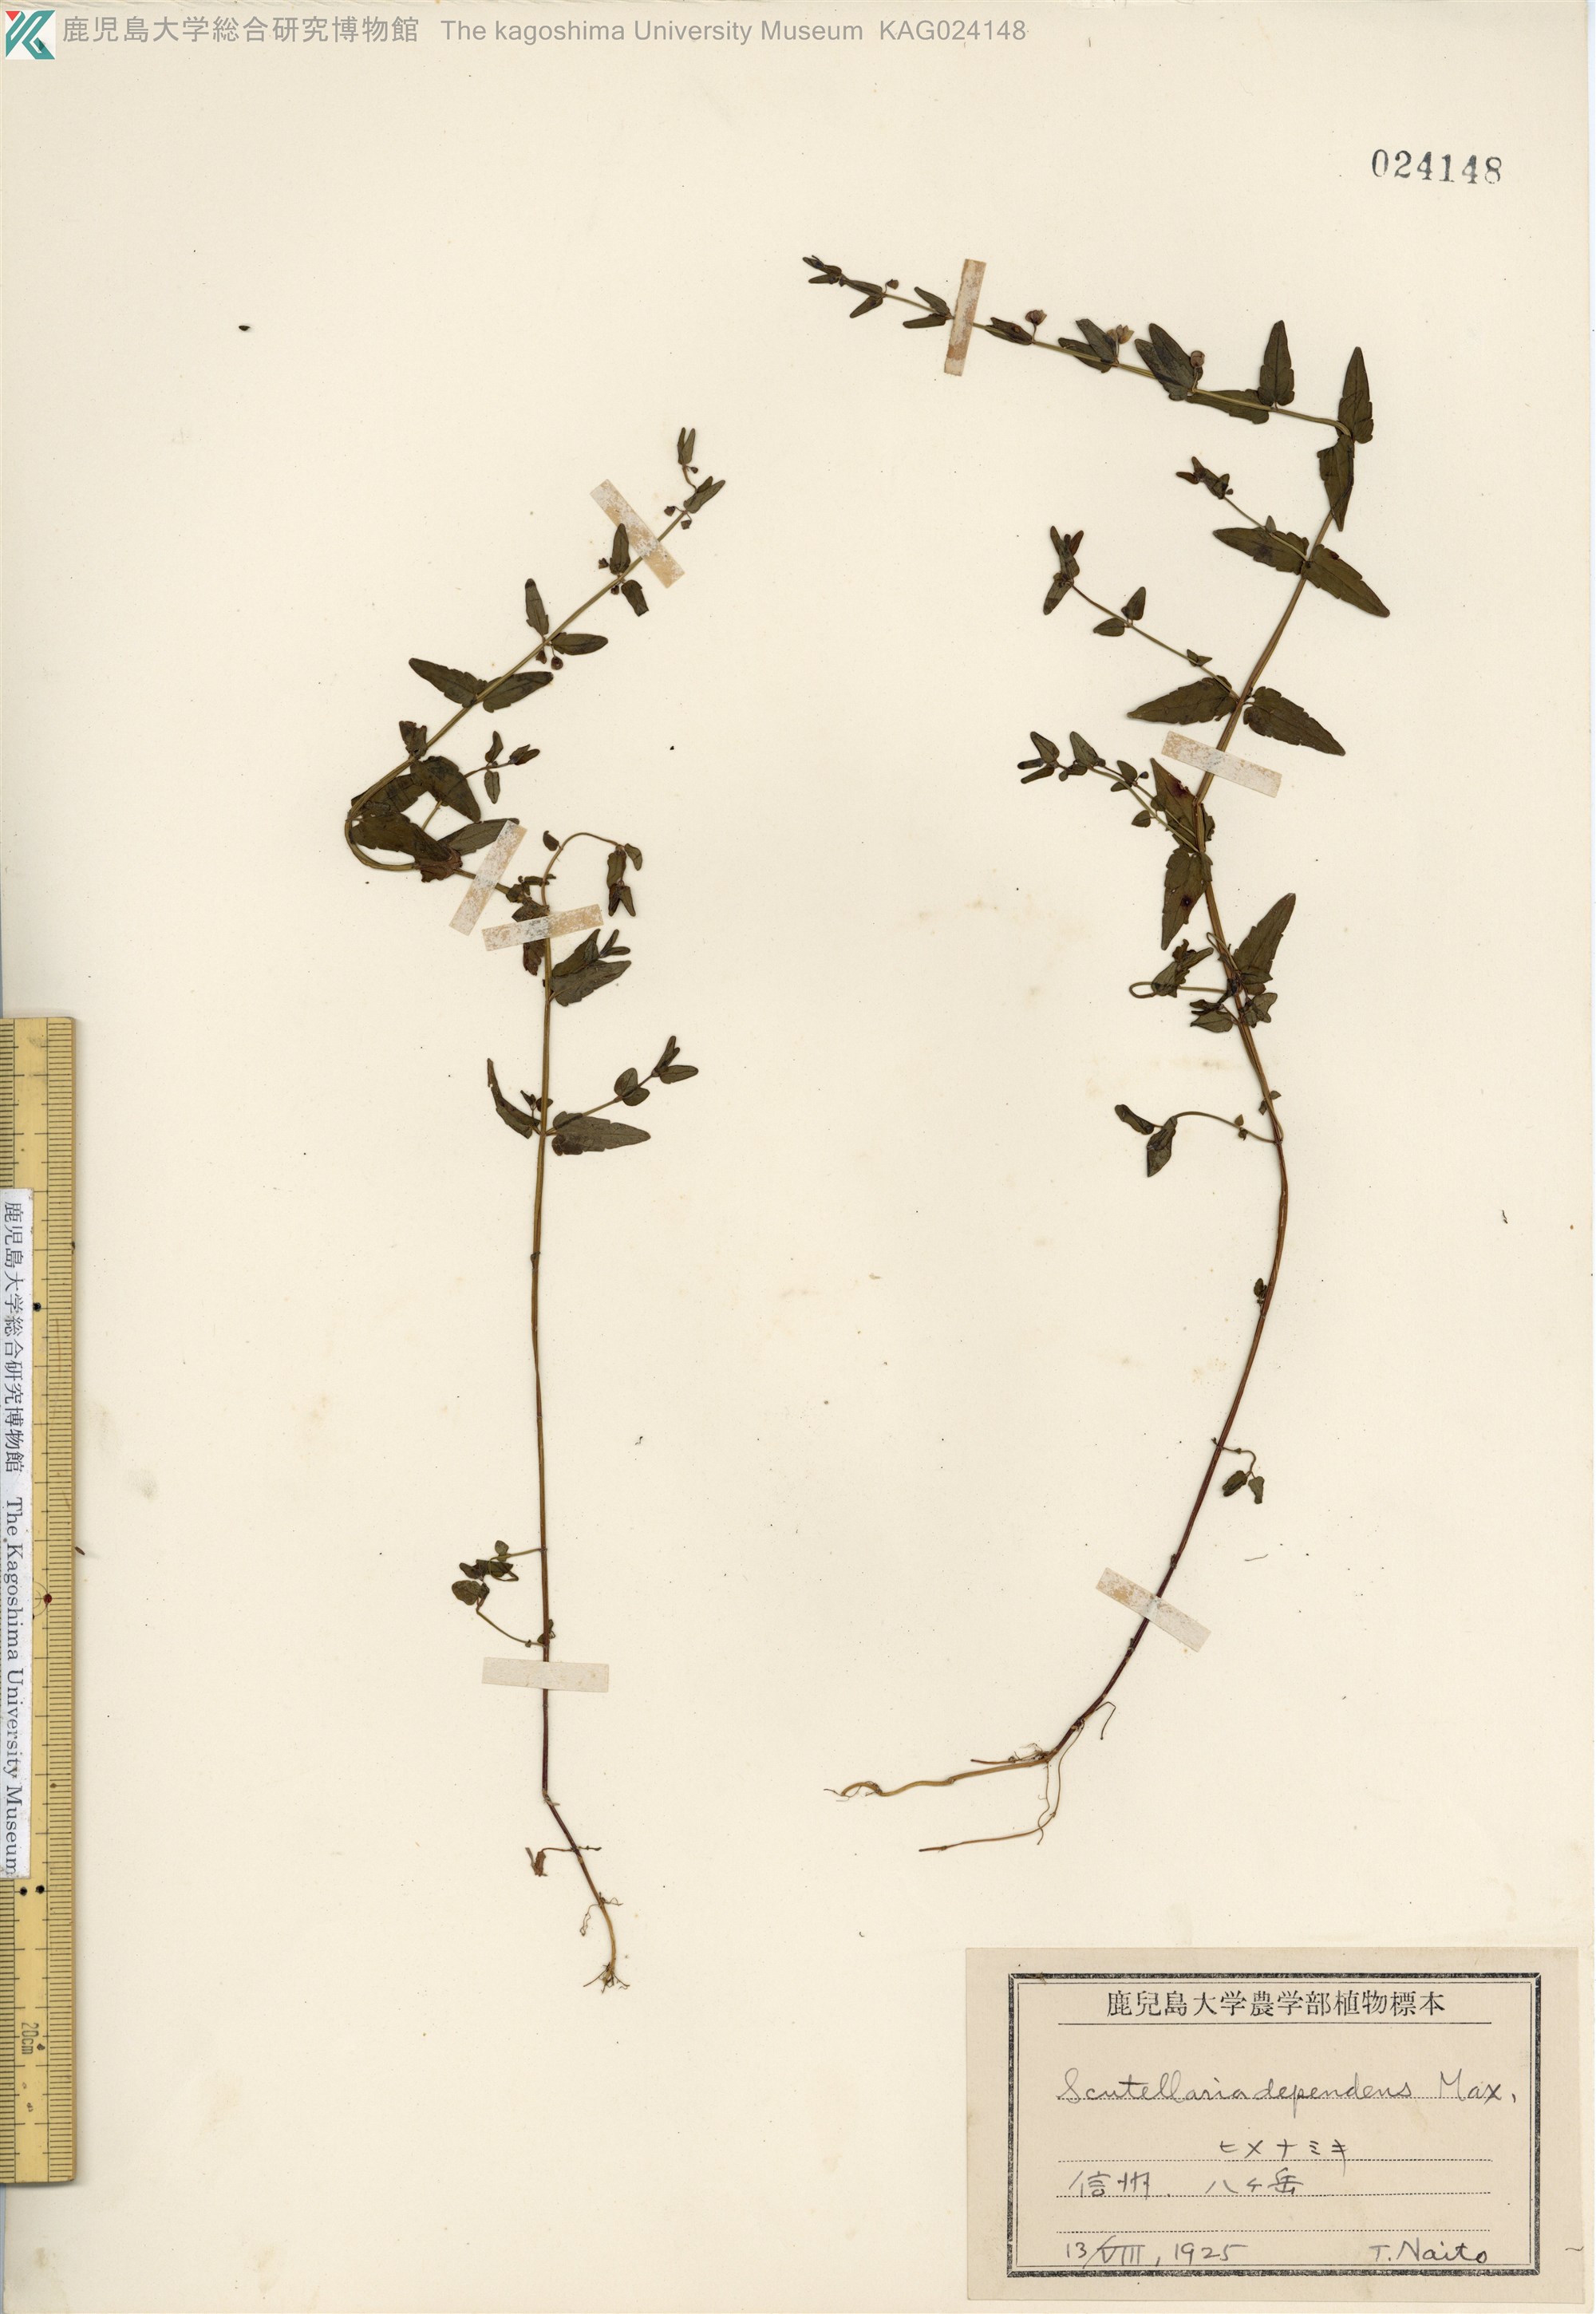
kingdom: Plantae
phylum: Tracheophyta
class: Magnoliopsida
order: Lamiales
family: Lamiaceae
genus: Scutellaria
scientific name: Scutellaria dependens
